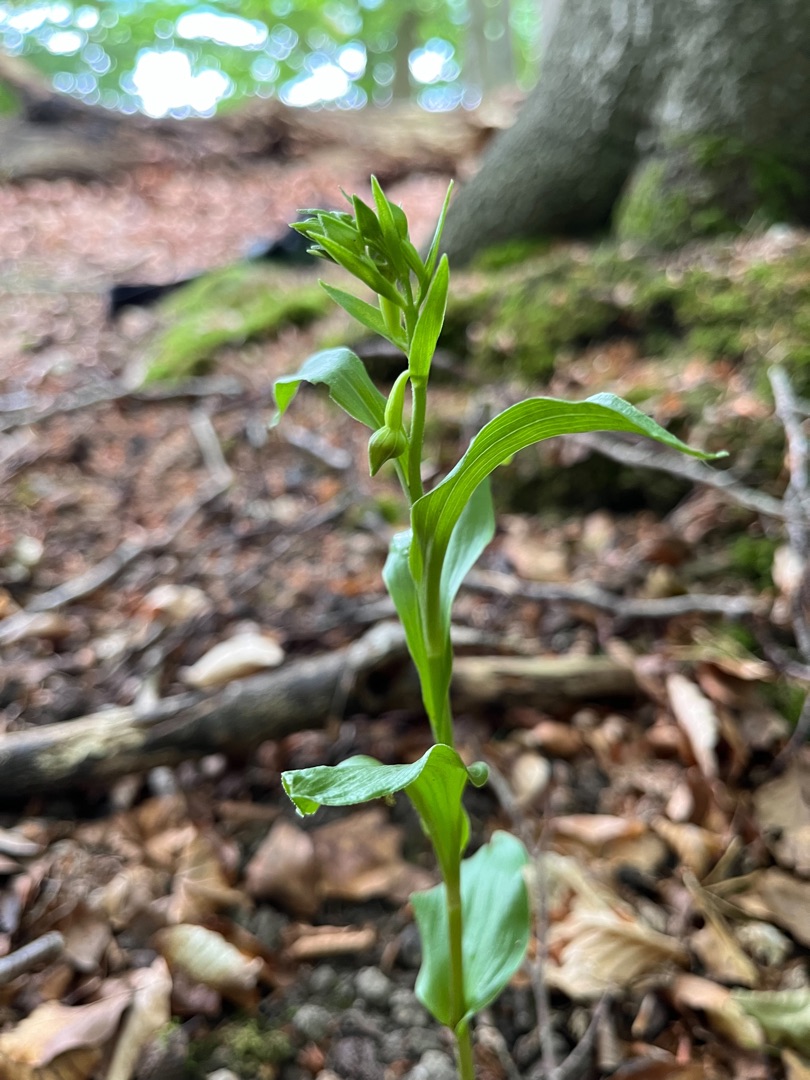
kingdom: Plantae
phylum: Tracheophyta
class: Liliopsida
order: Asparagales
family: Orchidaceae
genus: Epipactis
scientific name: Epipactis phyllanthes
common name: Nikkende hullæbe
